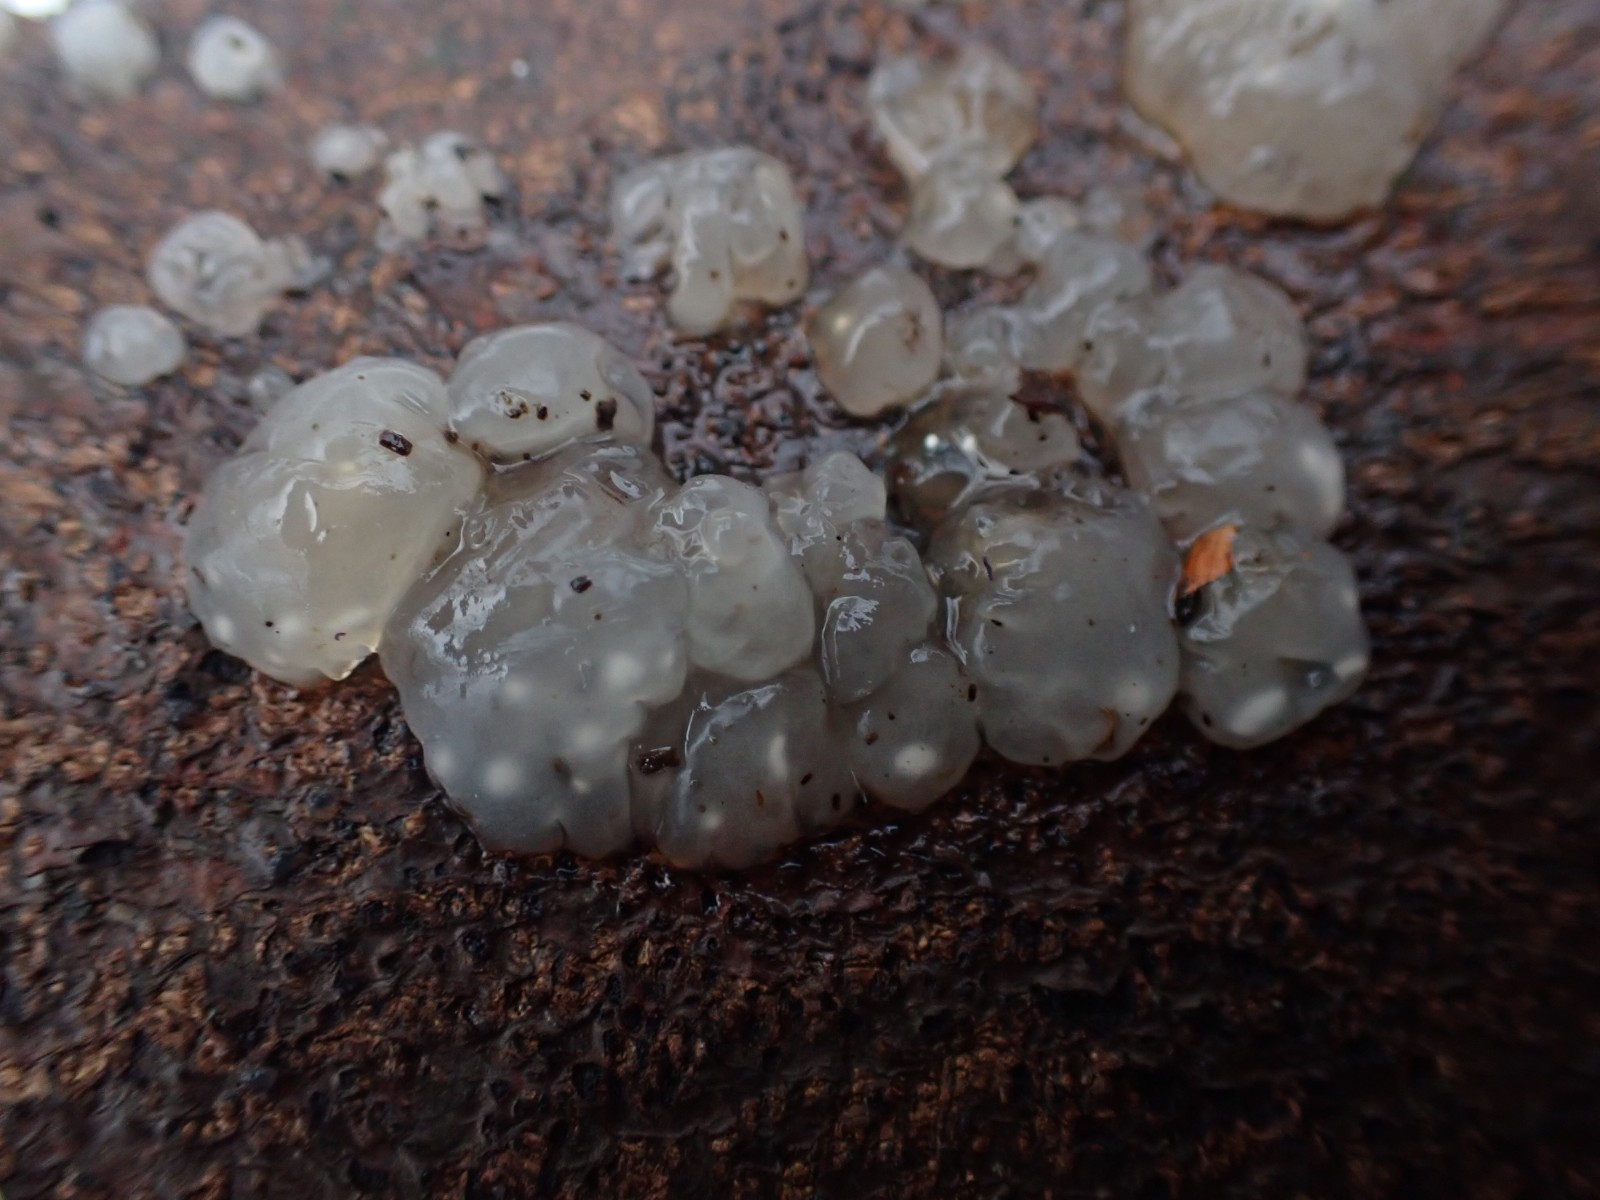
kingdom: Fungi
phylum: Basidiomycota
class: Agaricomycetes
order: Auriculariales
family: Hyaloriaceae
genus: Myxarium
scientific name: Myxarium nucleatum
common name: klar bævretop
